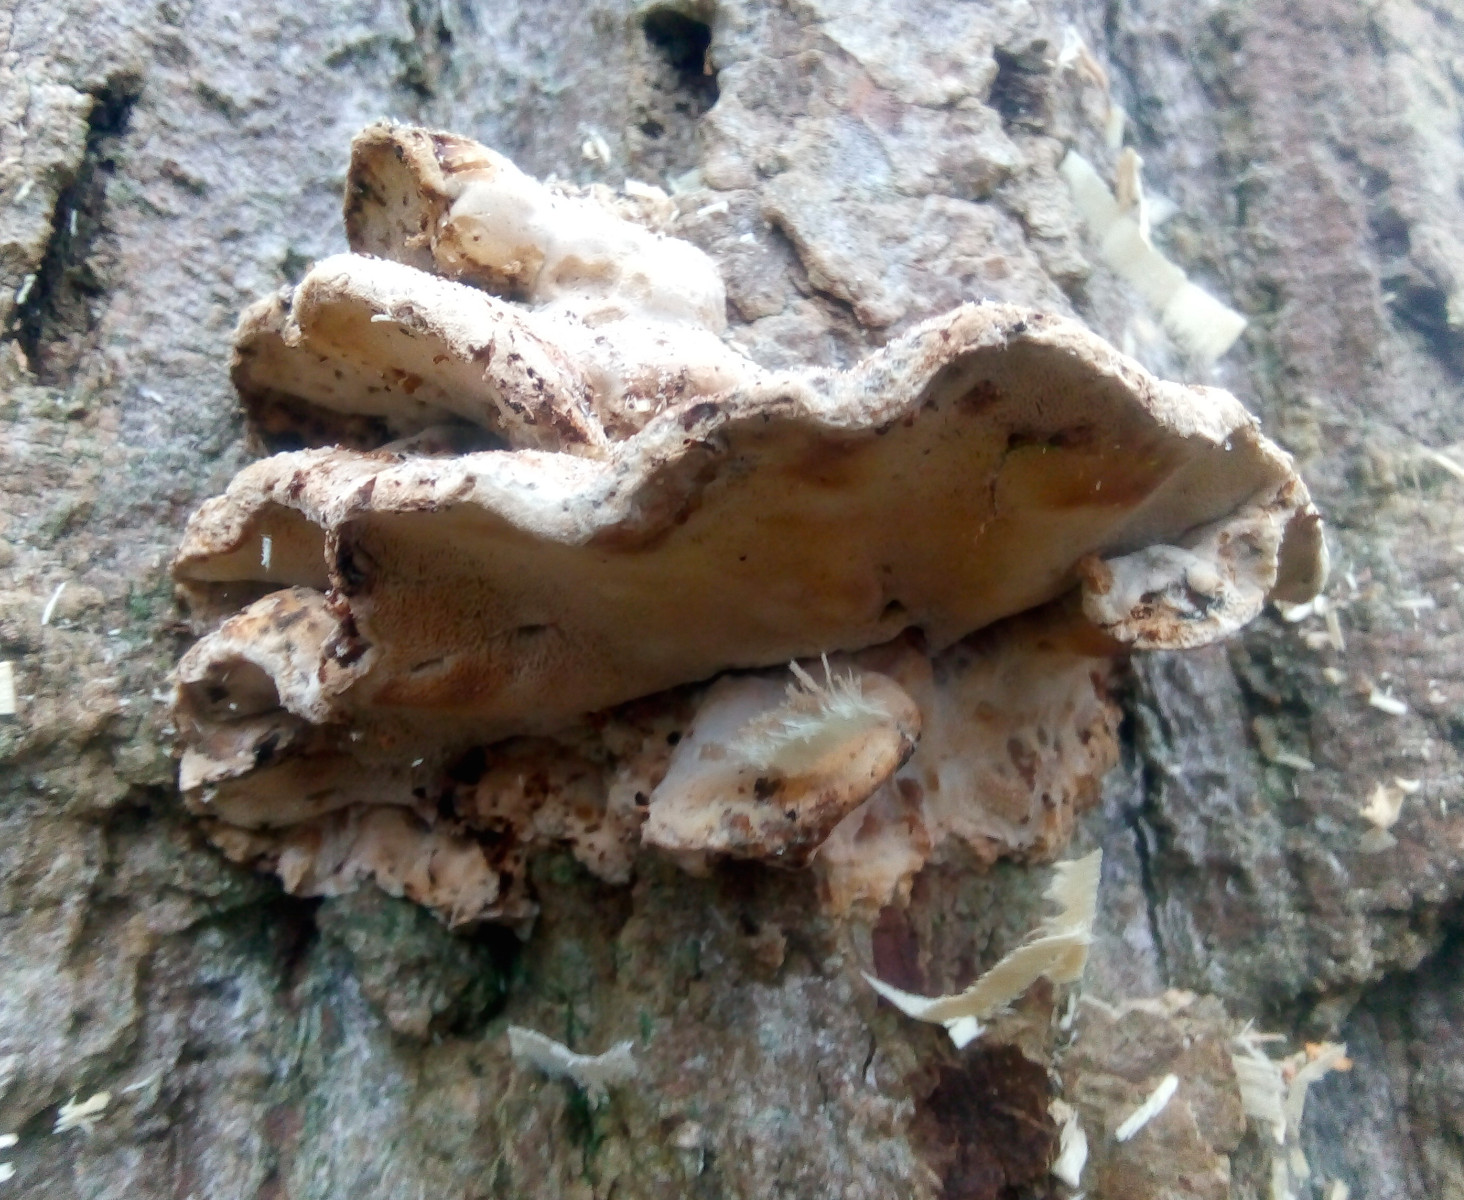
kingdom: Fungi
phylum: Basidiomycota
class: Agaricomycetes
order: Polyporales
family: Phanerochaetaceae
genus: Bjerkandera
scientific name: Bjerkandera fumosa
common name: grågul sodporesvamp
